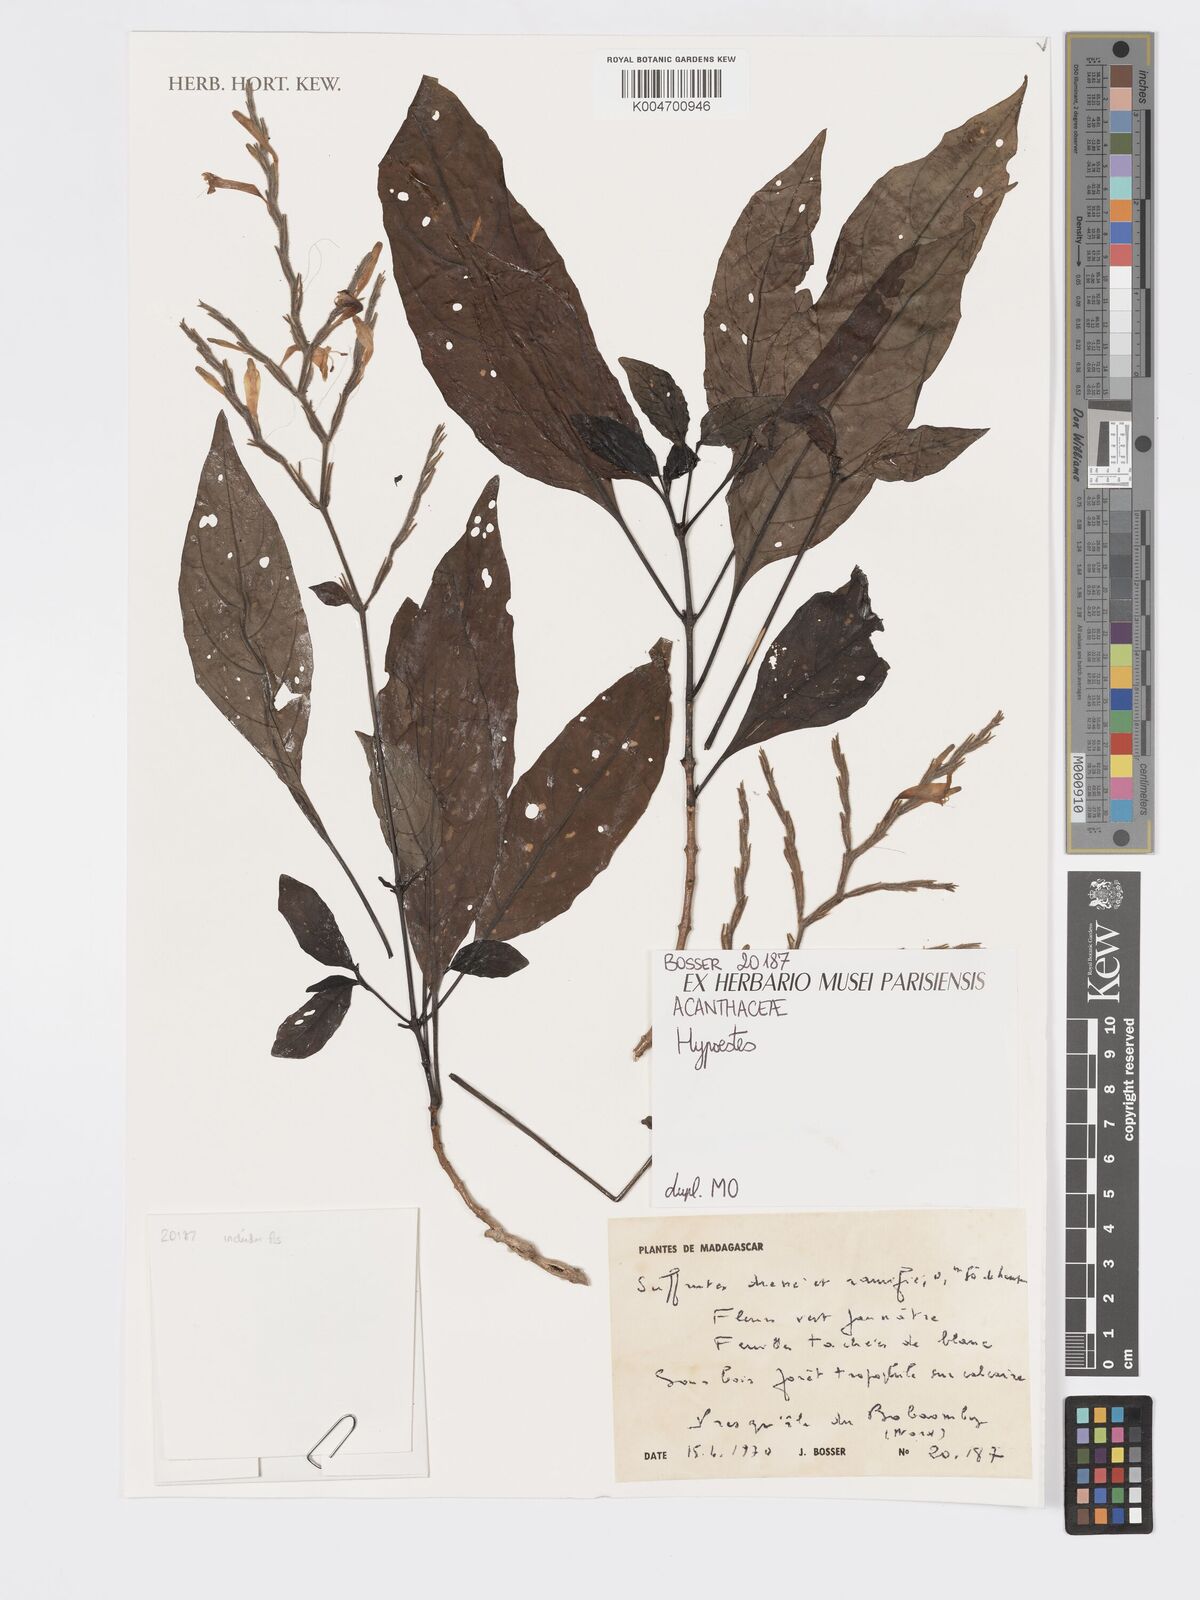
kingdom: Plantae
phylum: Tracheophyta
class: Magnoliopsida
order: Lamiales
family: Acanthaceae
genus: Hypoestes
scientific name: Hypoestes
